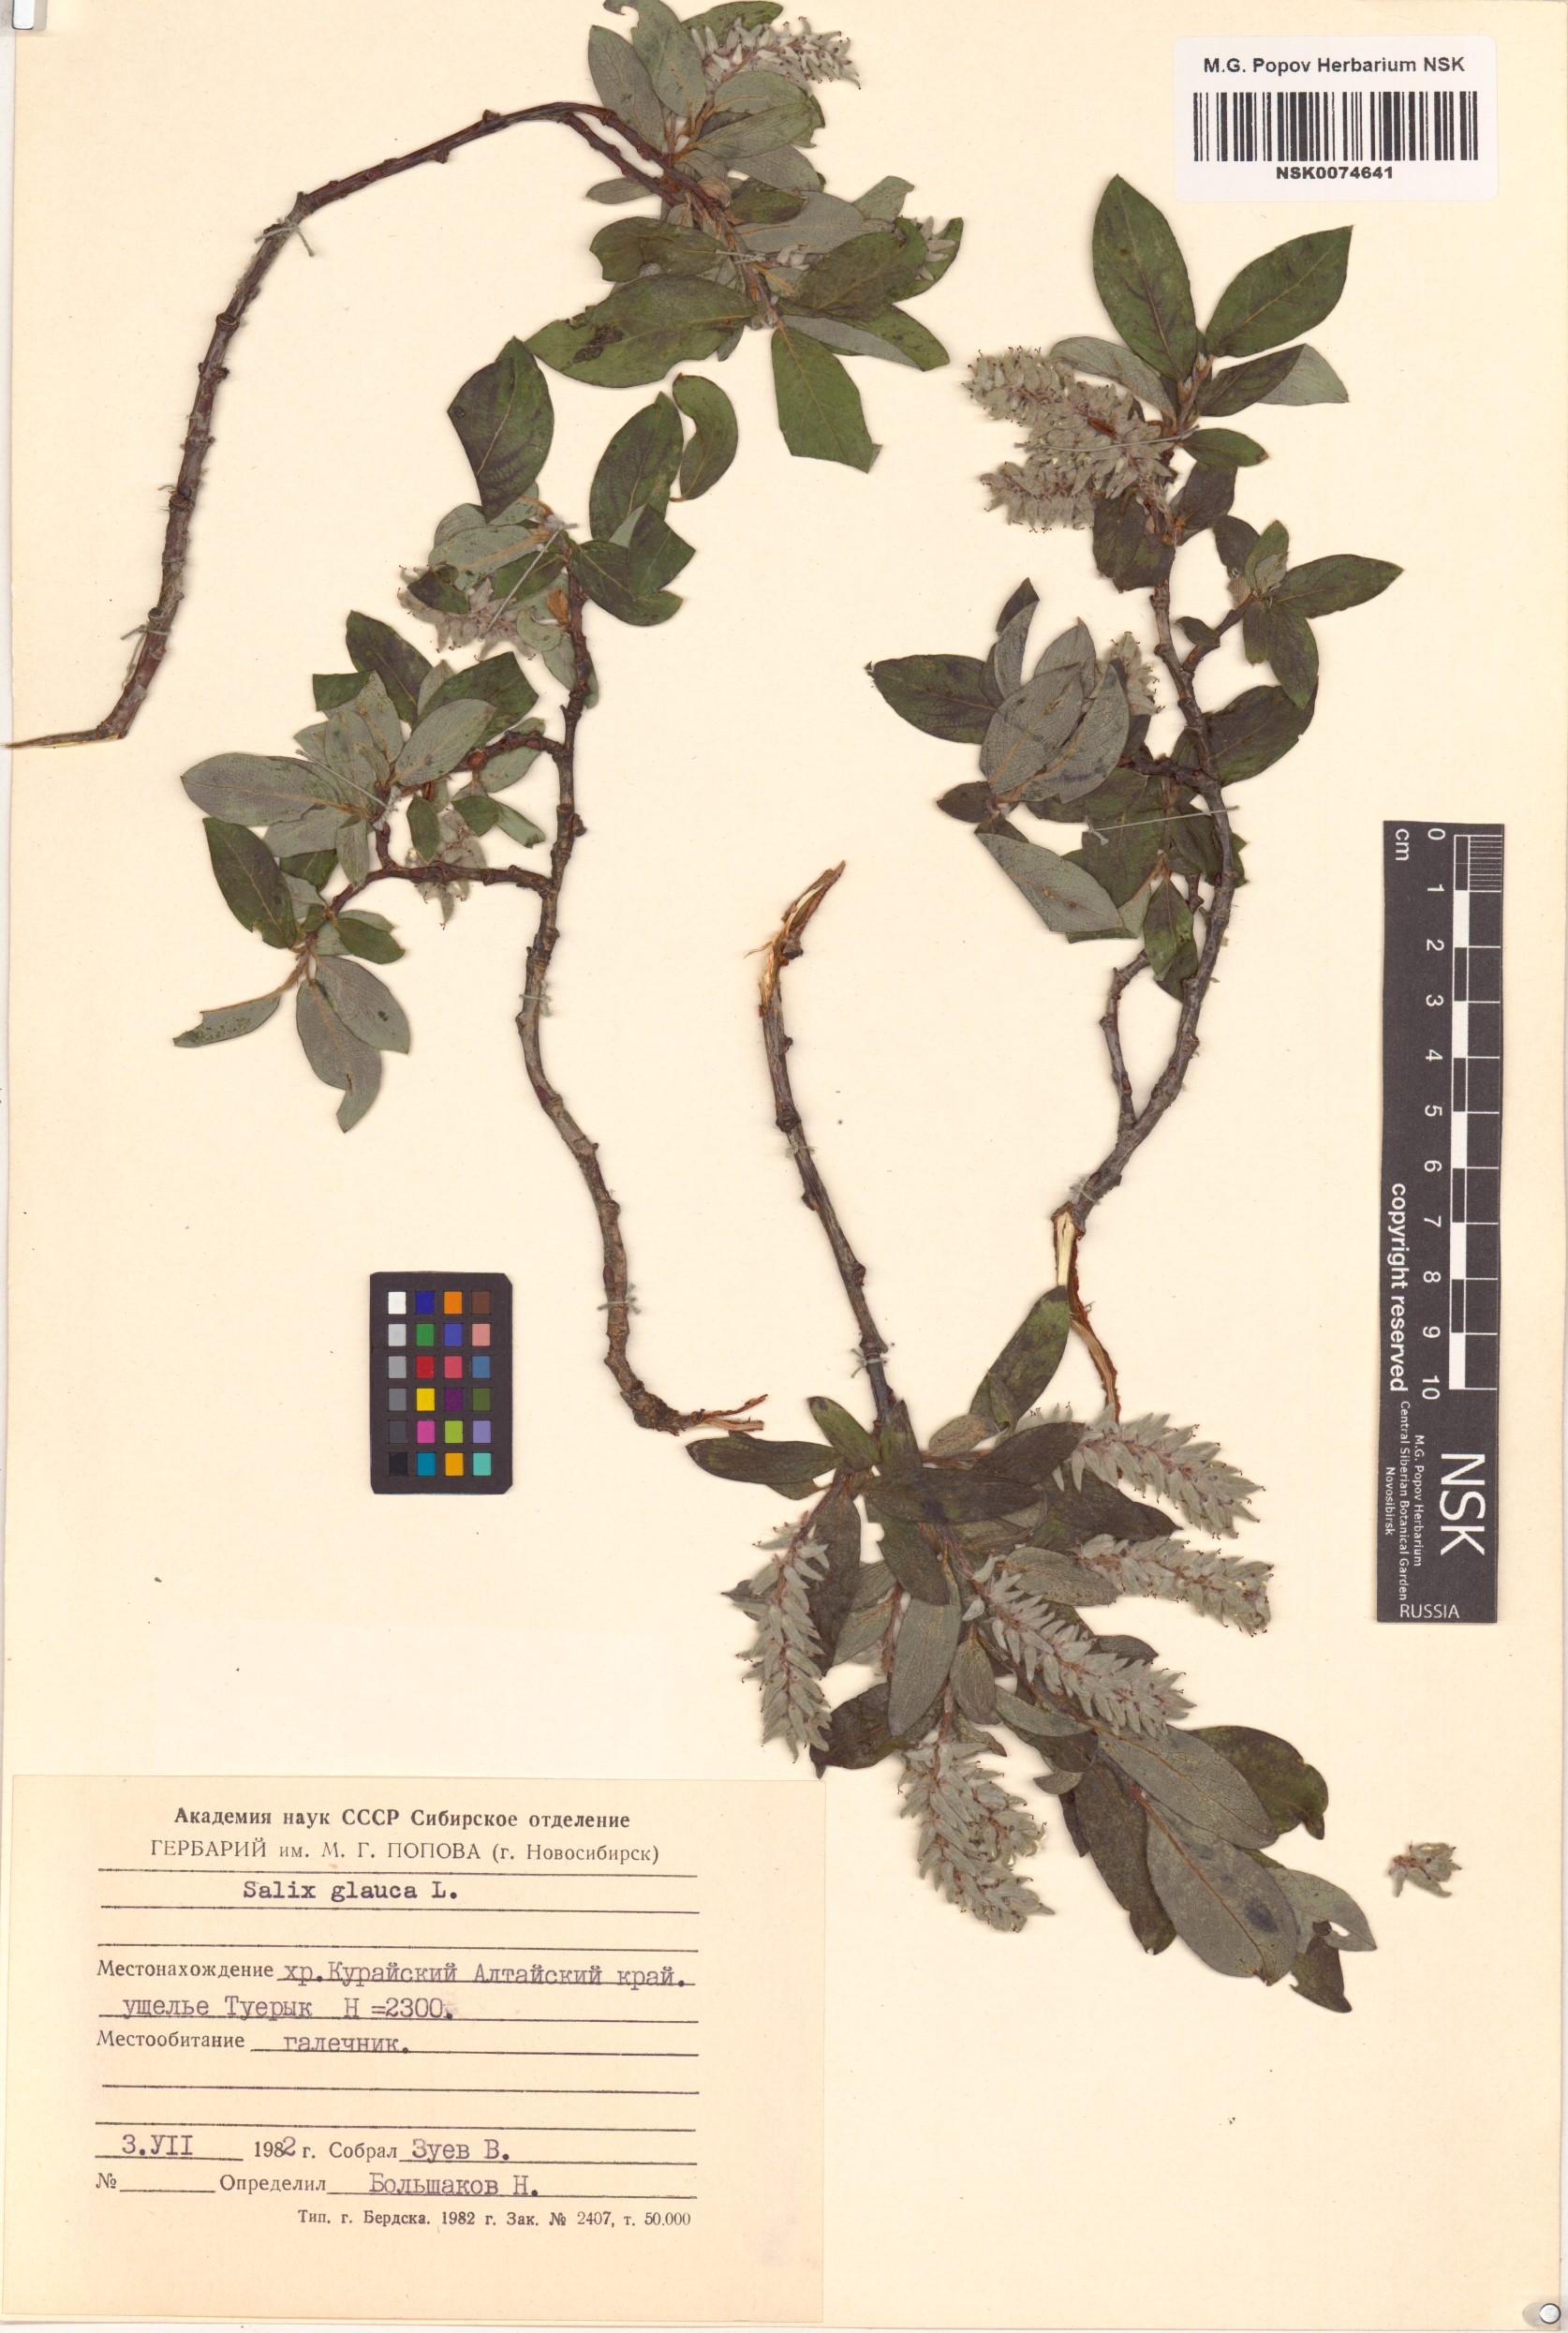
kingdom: Plantae
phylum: Tracheophyta
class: Magnoliopsida
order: Malpighiales
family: Salicaceae
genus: Salix
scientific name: Salix glauca
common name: Glaucous willow
